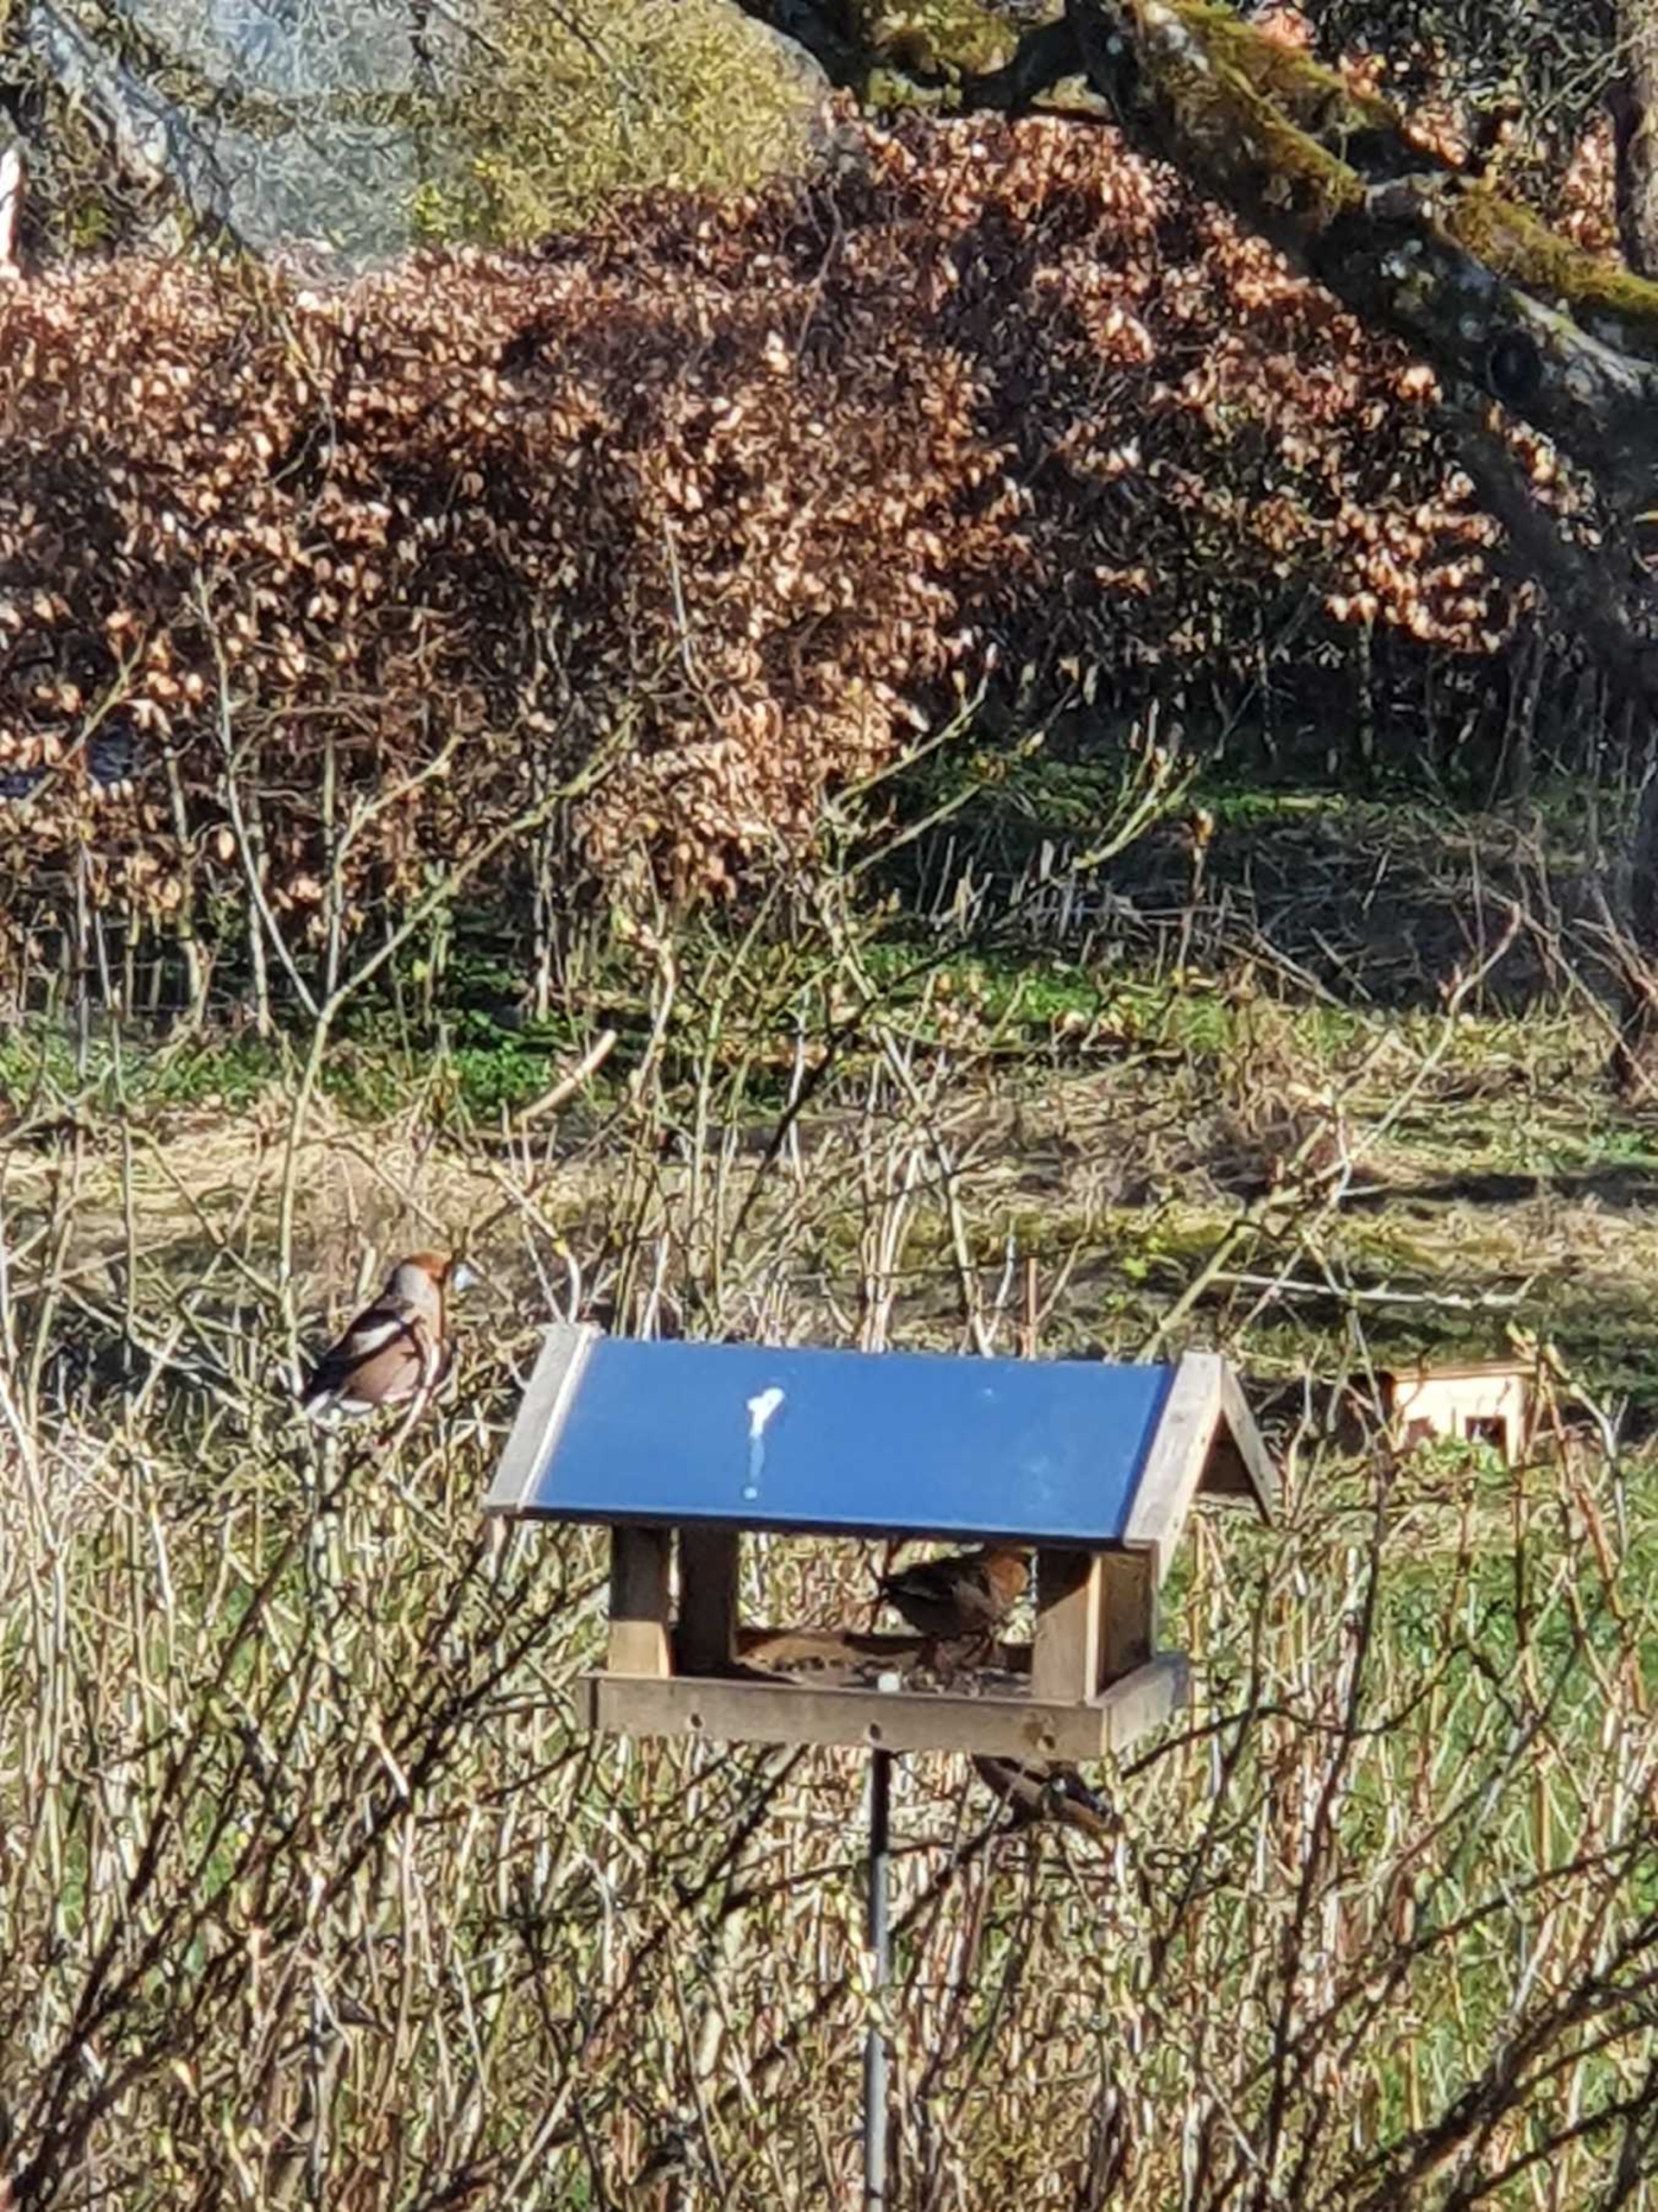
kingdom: Animalia
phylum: Chordata
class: Aves
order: Passeriformes
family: Fringillidae
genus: Coccothraustes
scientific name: Coccothraustes coccothraustes
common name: Kernebider
